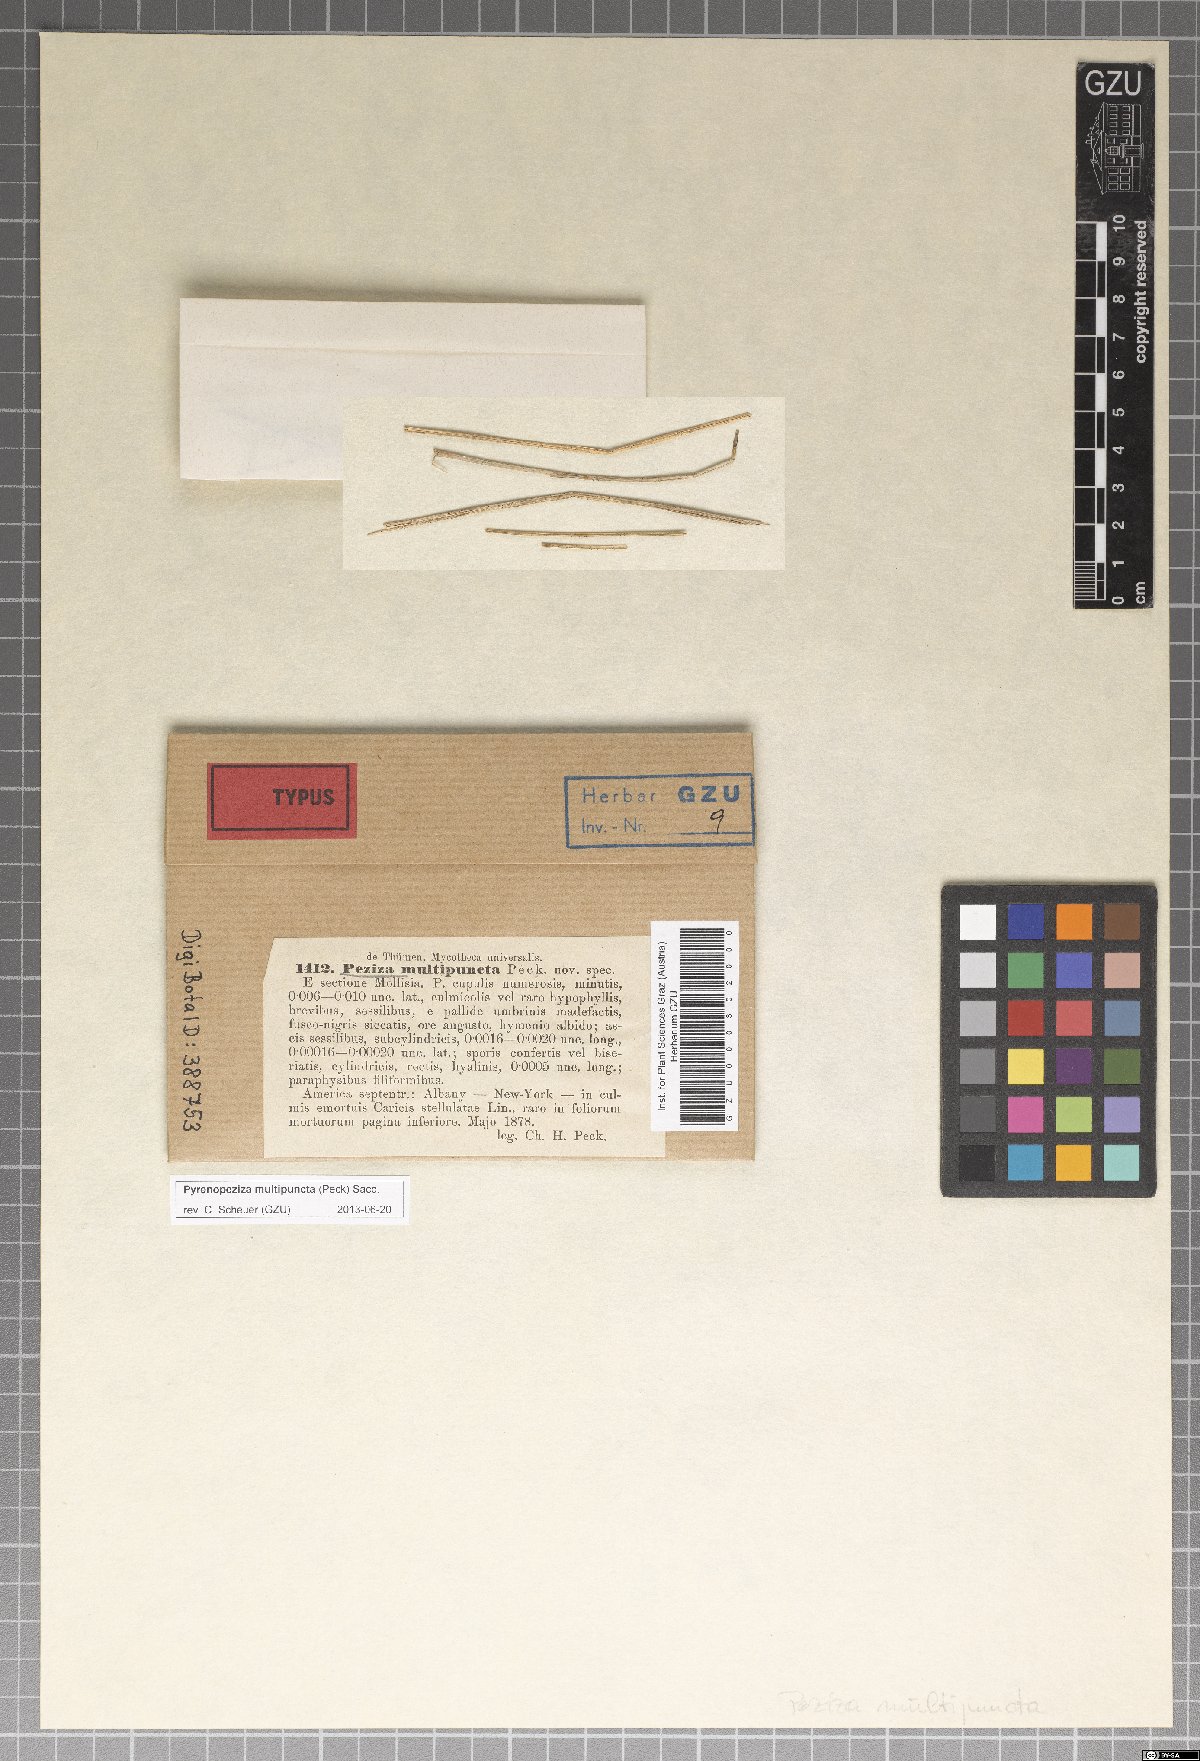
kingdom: Fungi
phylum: Ascomycota
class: Leotiomycetes
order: Helotiales
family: Dermateaceae
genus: Hysteropezizella
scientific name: Hysteropezizella multipuncta
